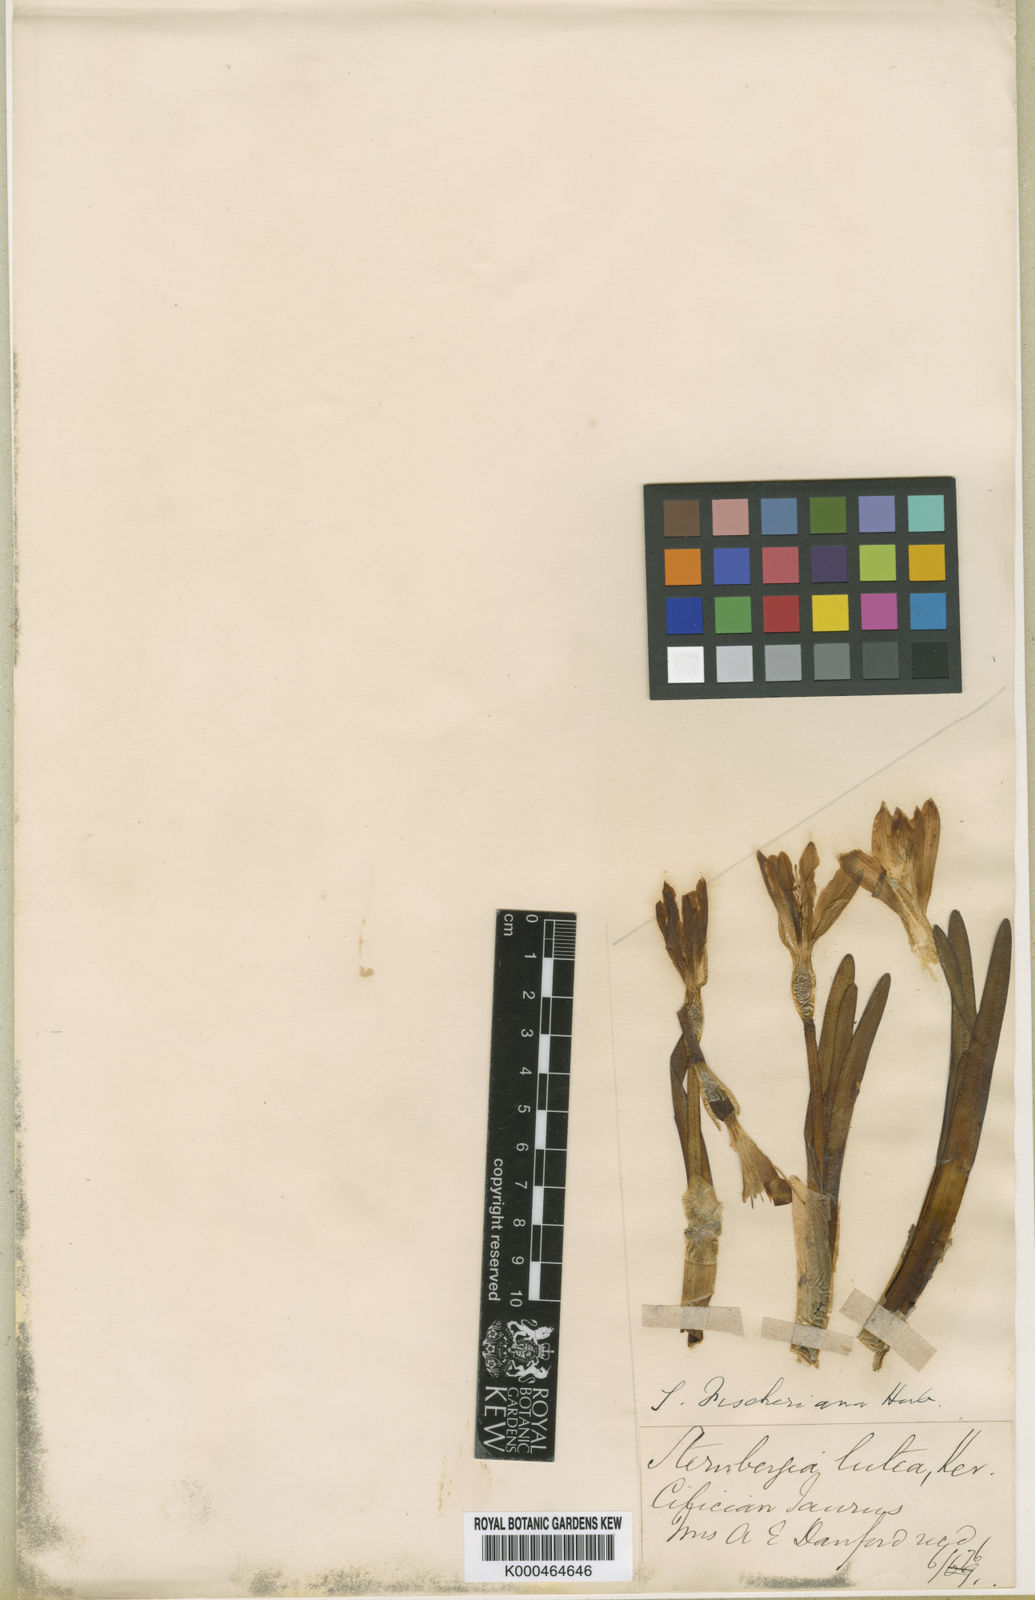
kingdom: Plantae
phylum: Tracheophyta
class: Liliopsida
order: Asparagales
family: Amaryllidaceae
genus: Sternbergia
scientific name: Sternbergia
